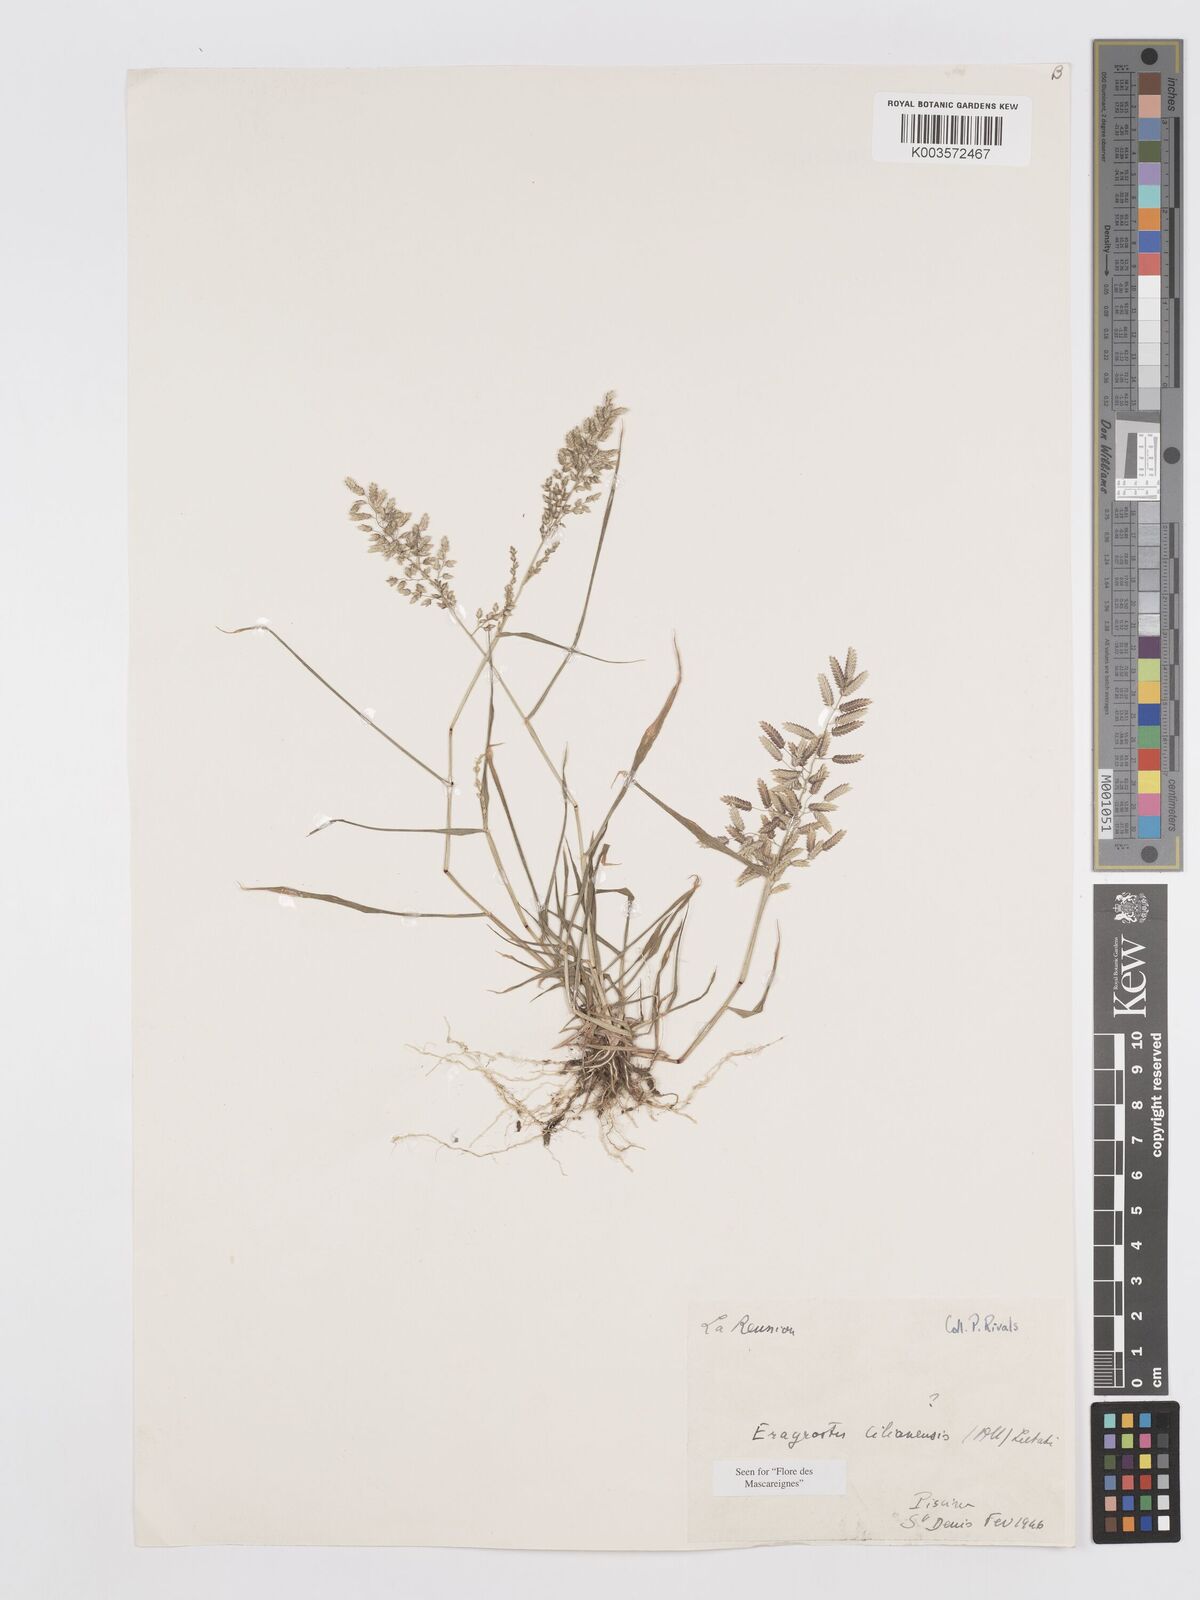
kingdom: Plantae
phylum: Tracheophyta
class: Liliopsida
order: Poales
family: Poaceae
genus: Eragrostis
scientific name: Eragrostis cilianensis
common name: Stinkgrass
